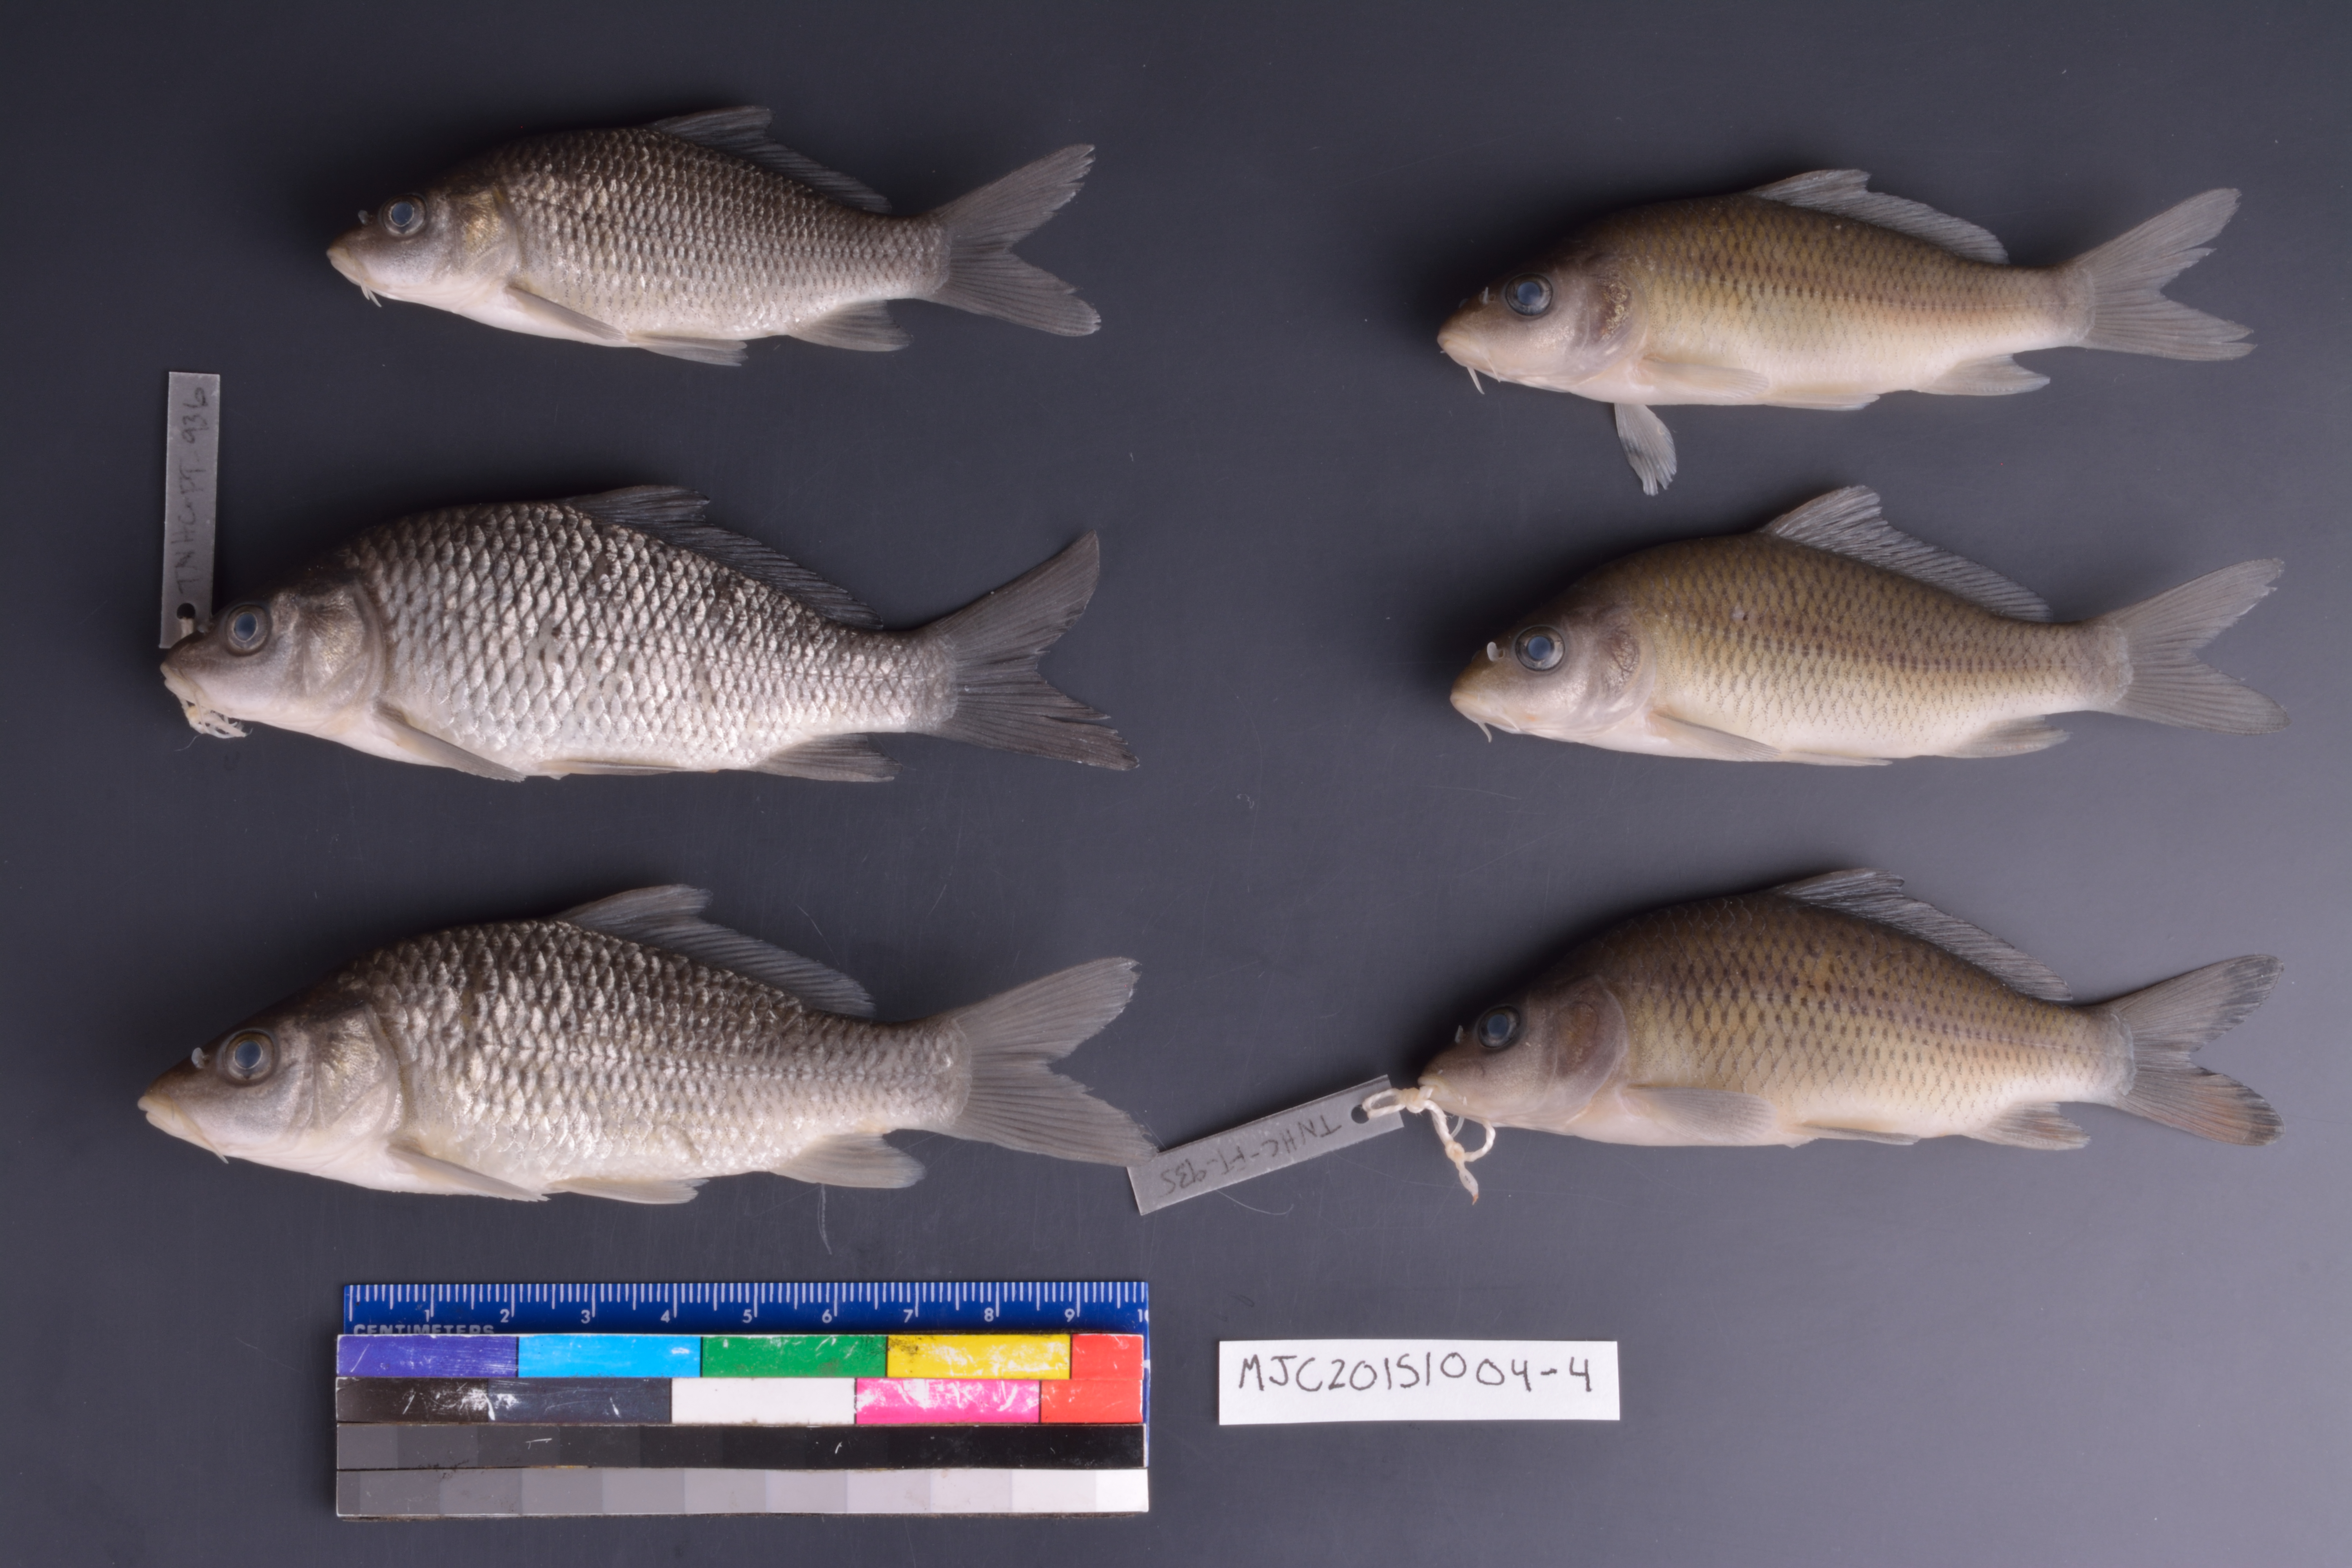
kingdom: Animalia
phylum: Chordata
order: Cypriniformes
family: Cyprinidae
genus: Cyprinus
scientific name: Cyprinus carpio
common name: Common carp
